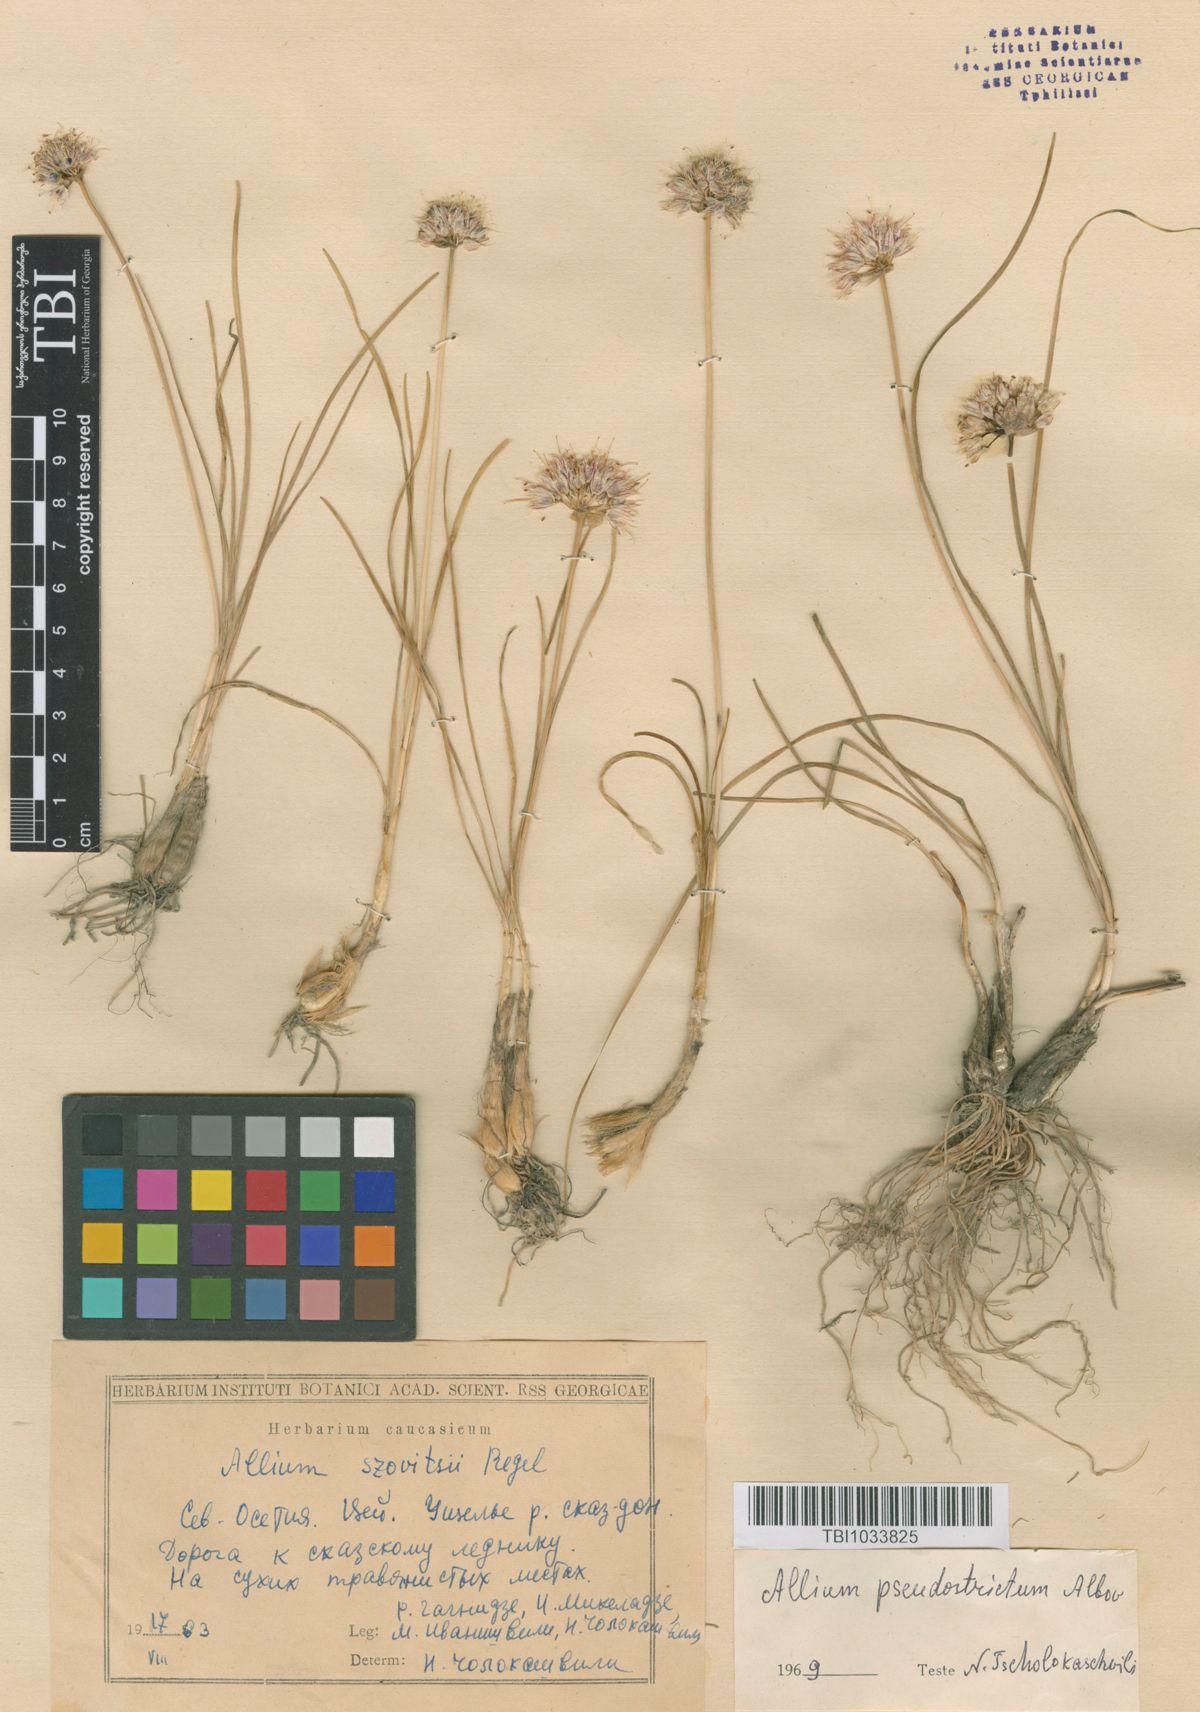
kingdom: Plantae
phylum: Tracheophyta
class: Liliopsida
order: Asparagales
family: Amaryllidaceae
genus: Allium
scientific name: Allium pseudostrictum
